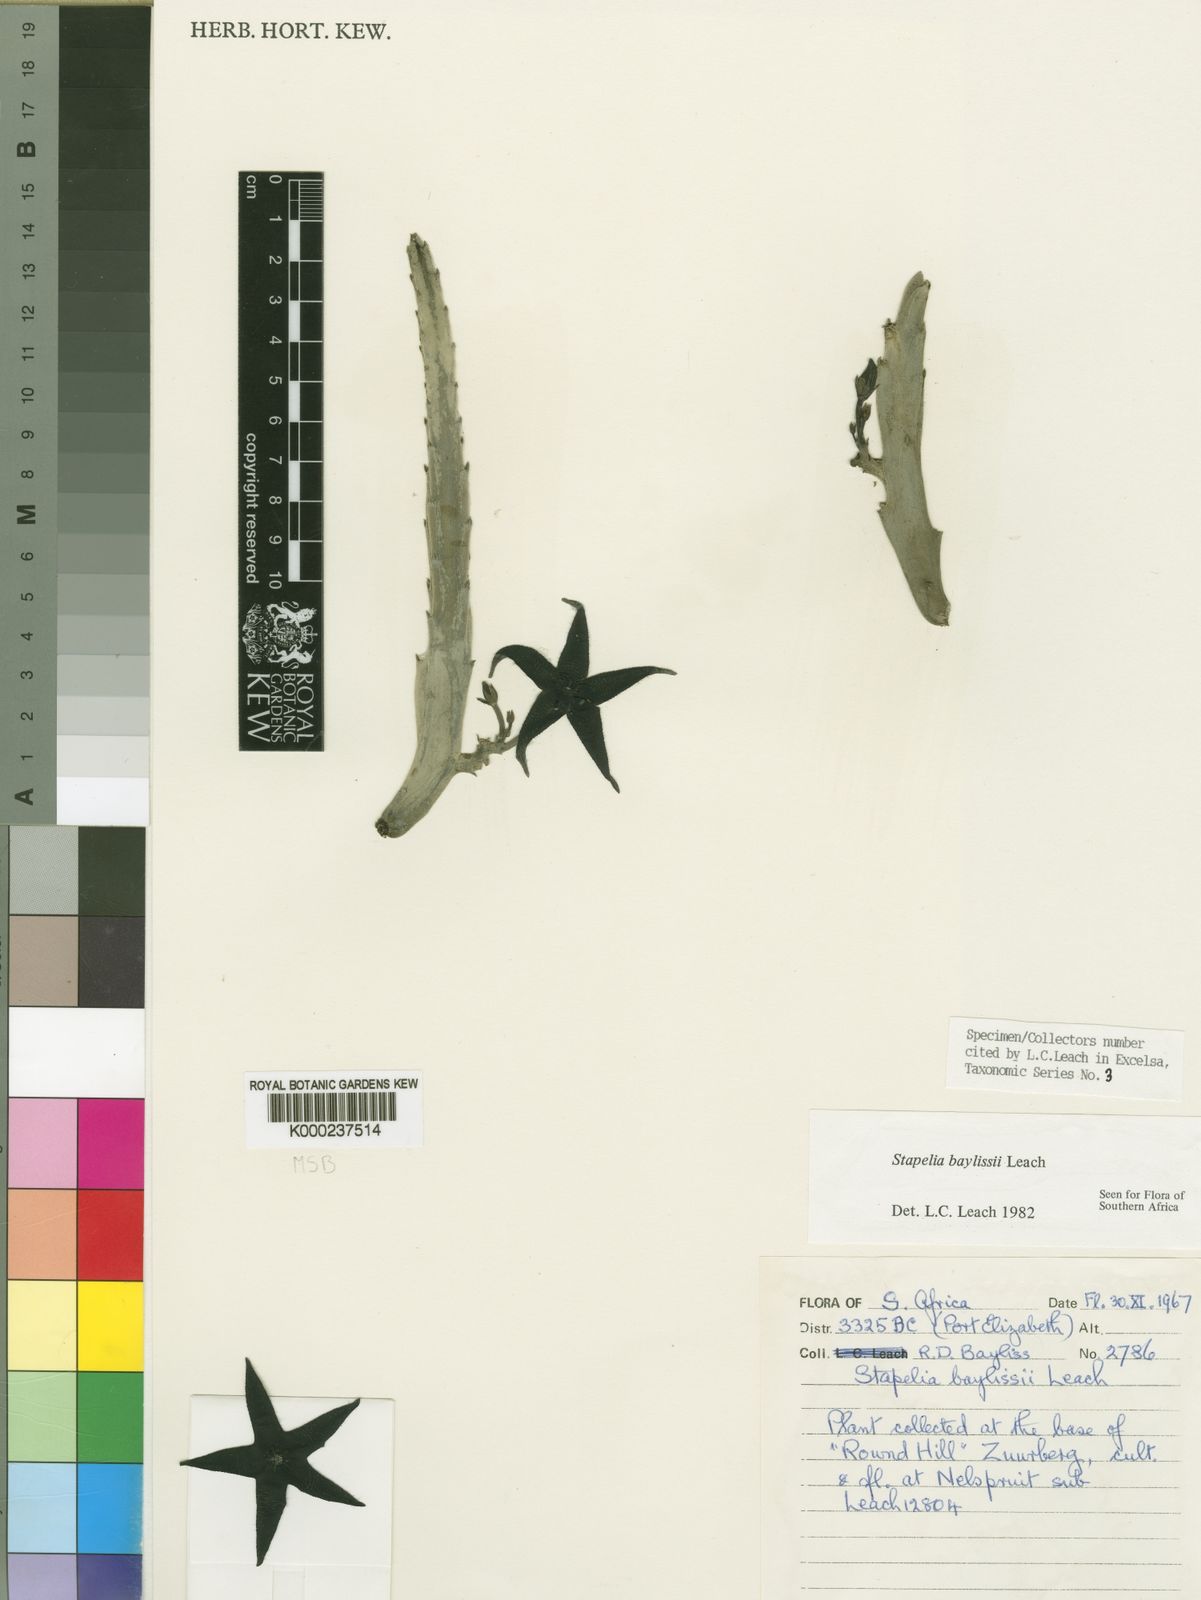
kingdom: Plantae
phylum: Tracheophyta
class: Magnoliopsida
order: Gentianales
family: Apocynaceae
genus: Ceropegia
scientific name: Ceropegia pulvinata
